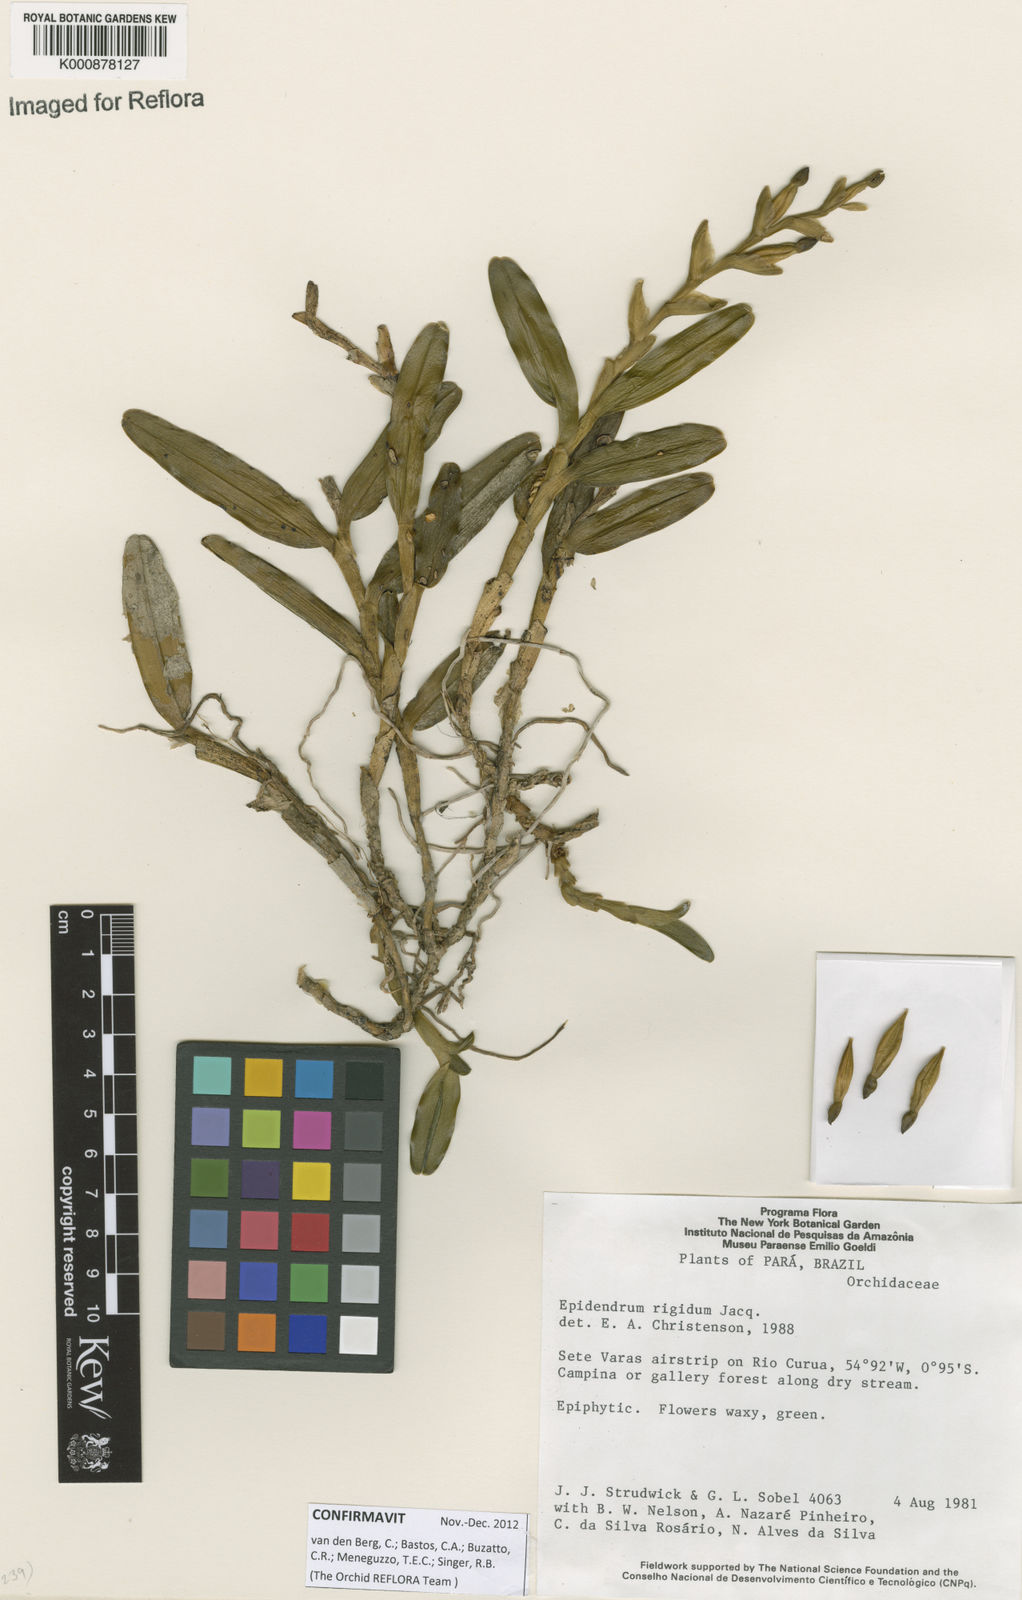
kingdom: Plantae
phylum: Tracheophyta
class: Liliopsida
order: Asparagales
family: Orchidaceae
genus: Epidendrum
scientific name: Epidendrum rigidum
